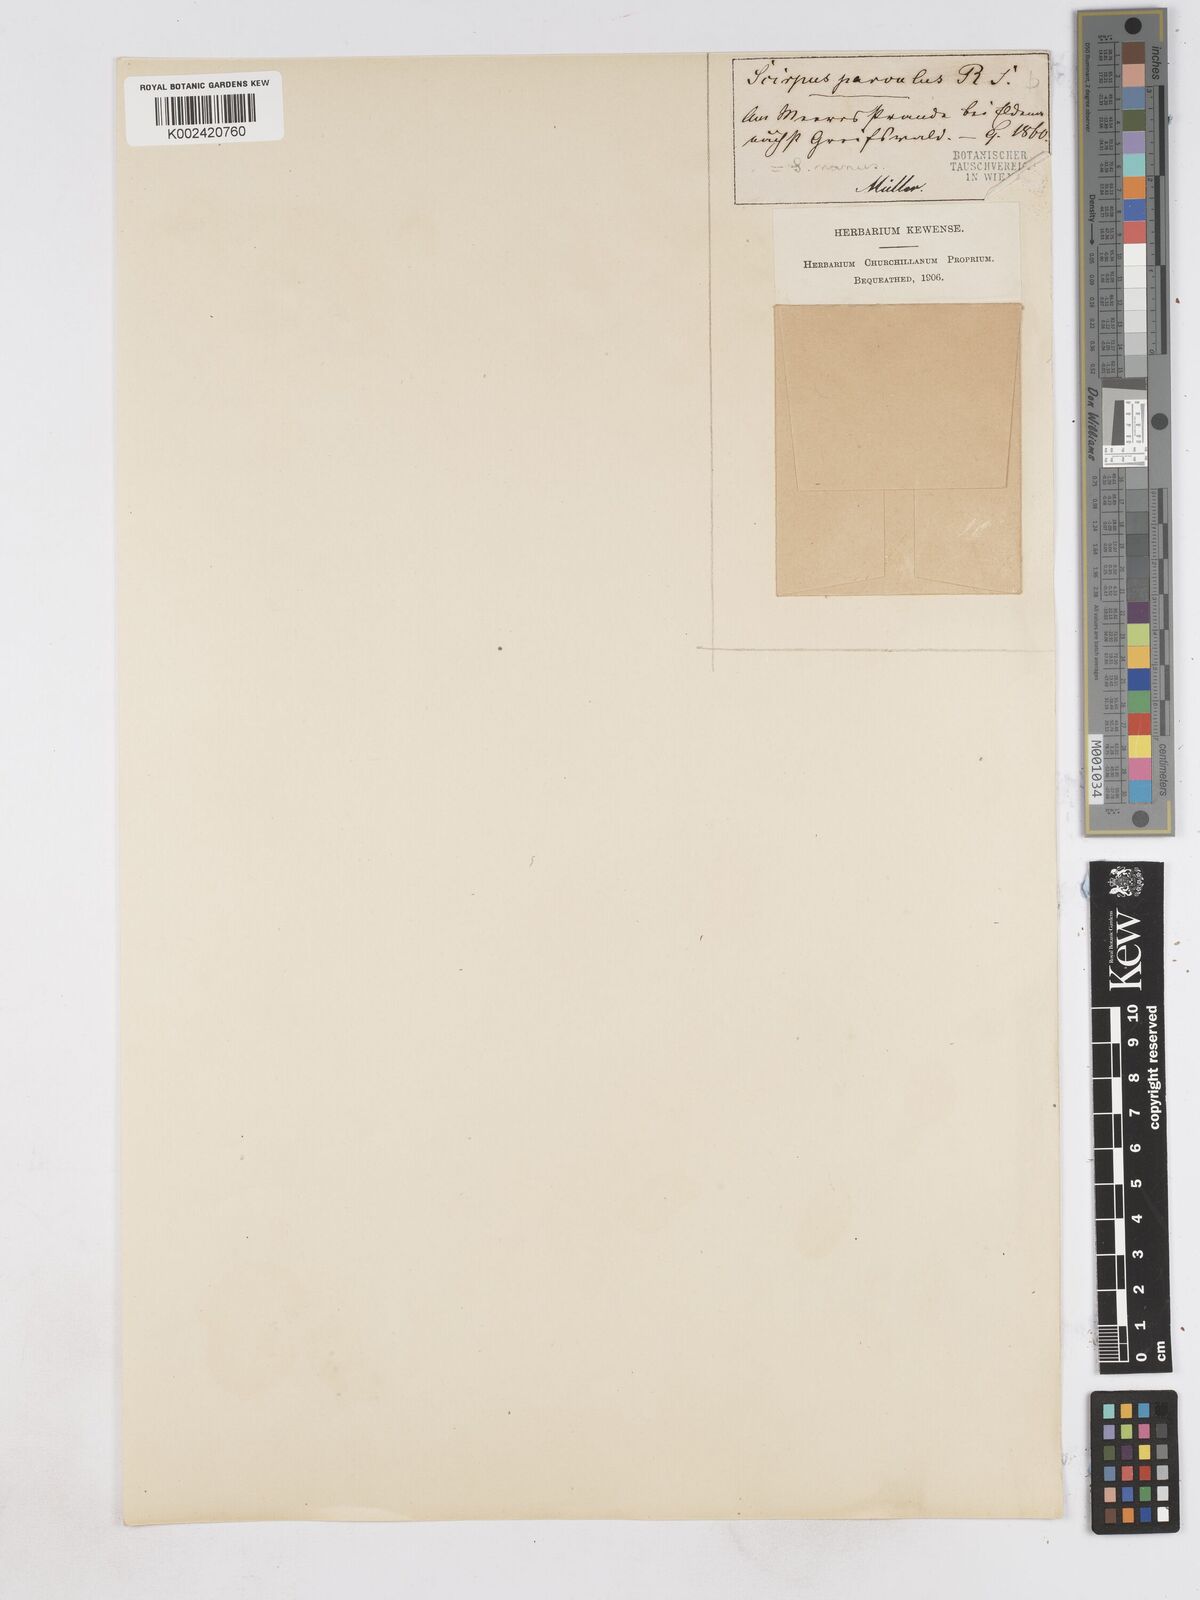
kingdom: Plantae
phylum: Tracheophyta
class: Liliopsida
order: Poales
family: Cyperaceae
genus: Eleocharis
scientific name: Eleocharis parvula
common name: Dwarf spike-rush
